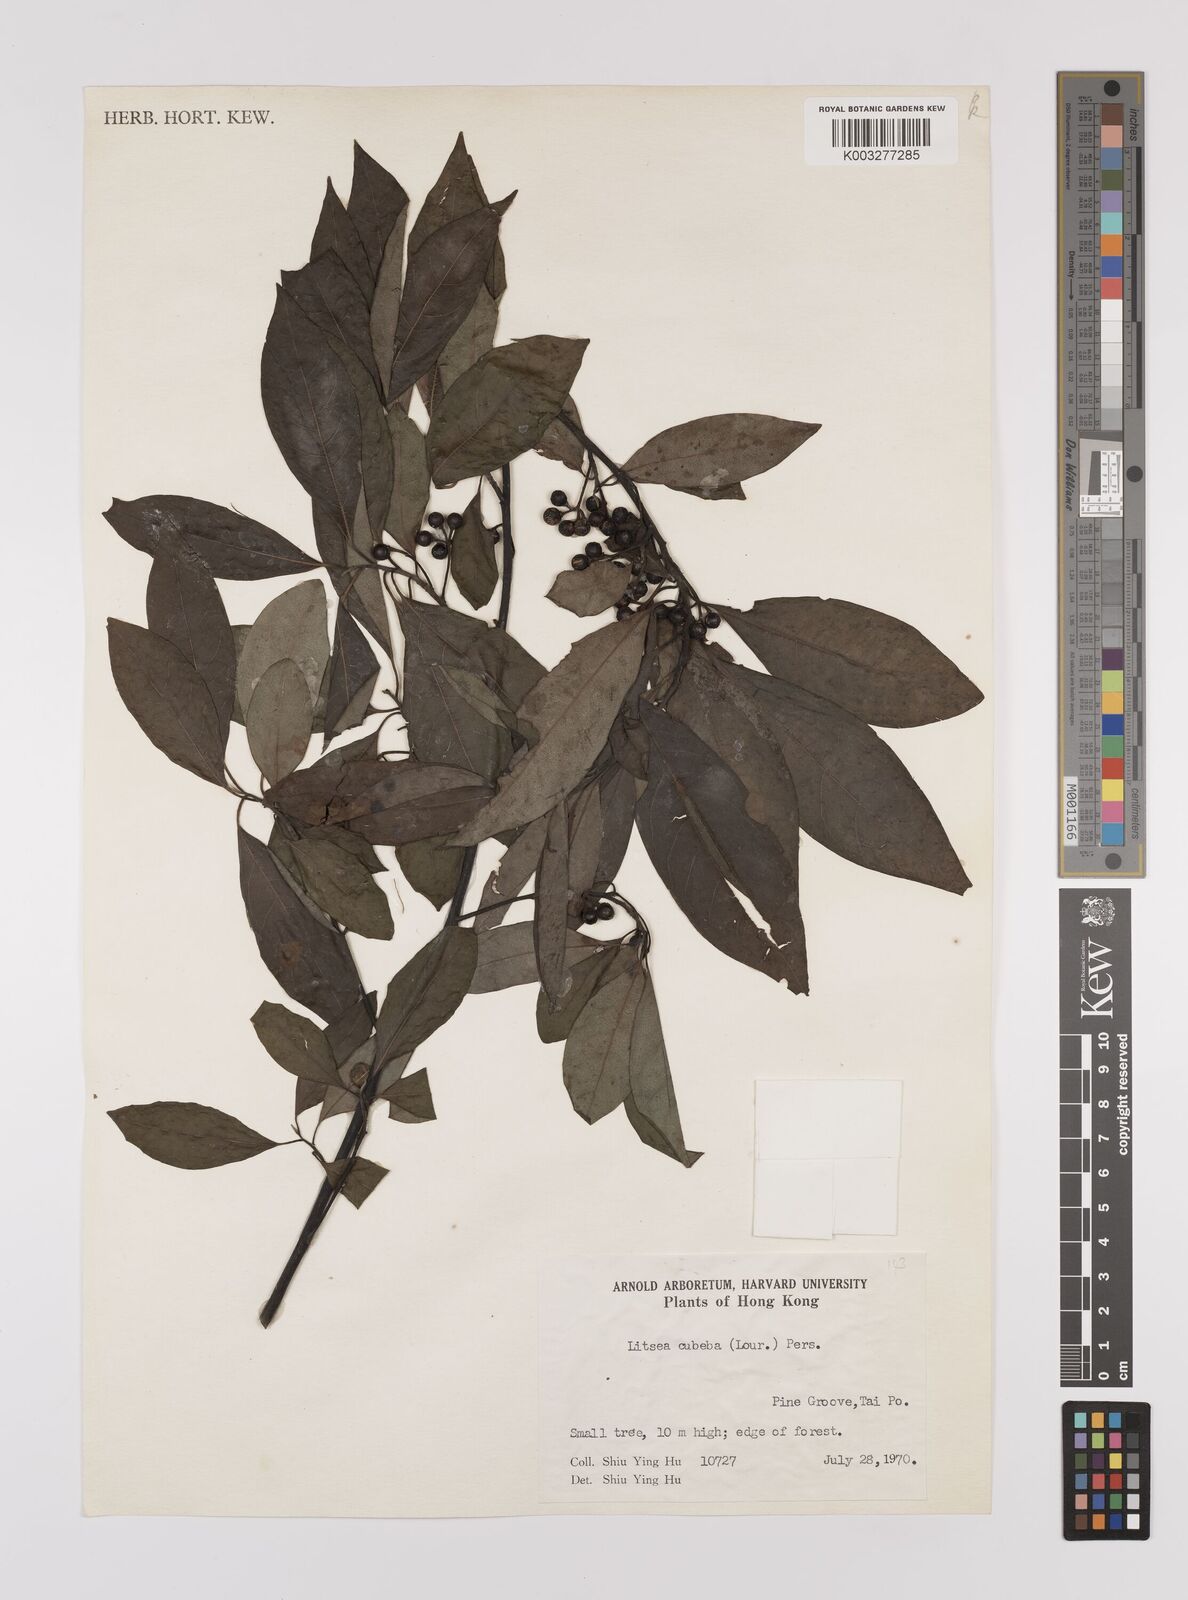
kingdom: Plantae
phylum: Tracheophyta
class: Magnoliopsida
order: Laurales
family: Lauraceae
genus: Litsea
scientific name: Litsea cubeba
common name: Mountain-pepper
